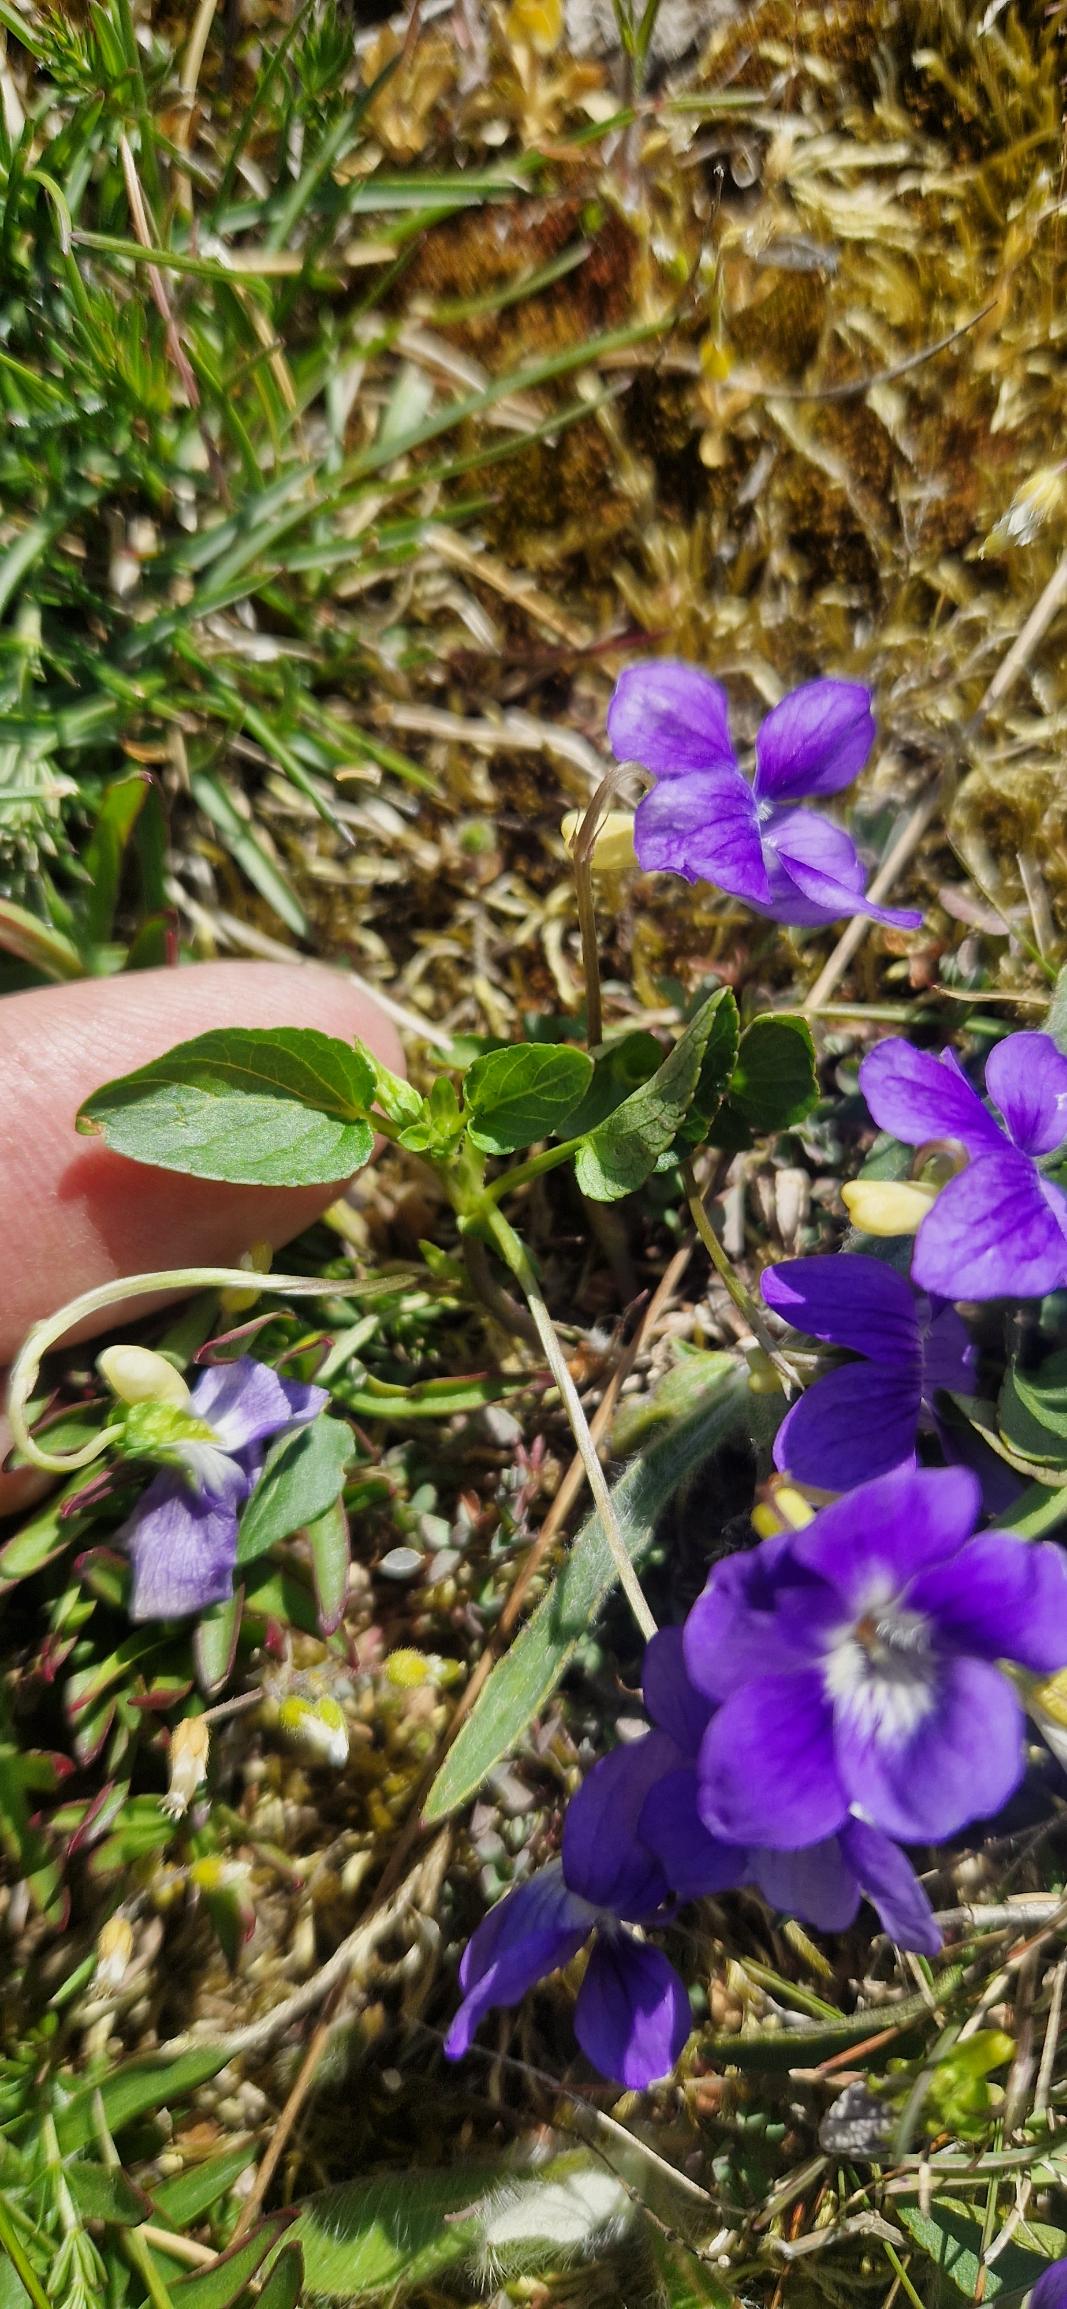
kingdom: Plantae
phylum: Tracheophyta
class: Magnoliopsida
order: Malpighiales
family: Violaceae
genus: Viola
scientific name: Viola canina
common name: Hunde-viol
